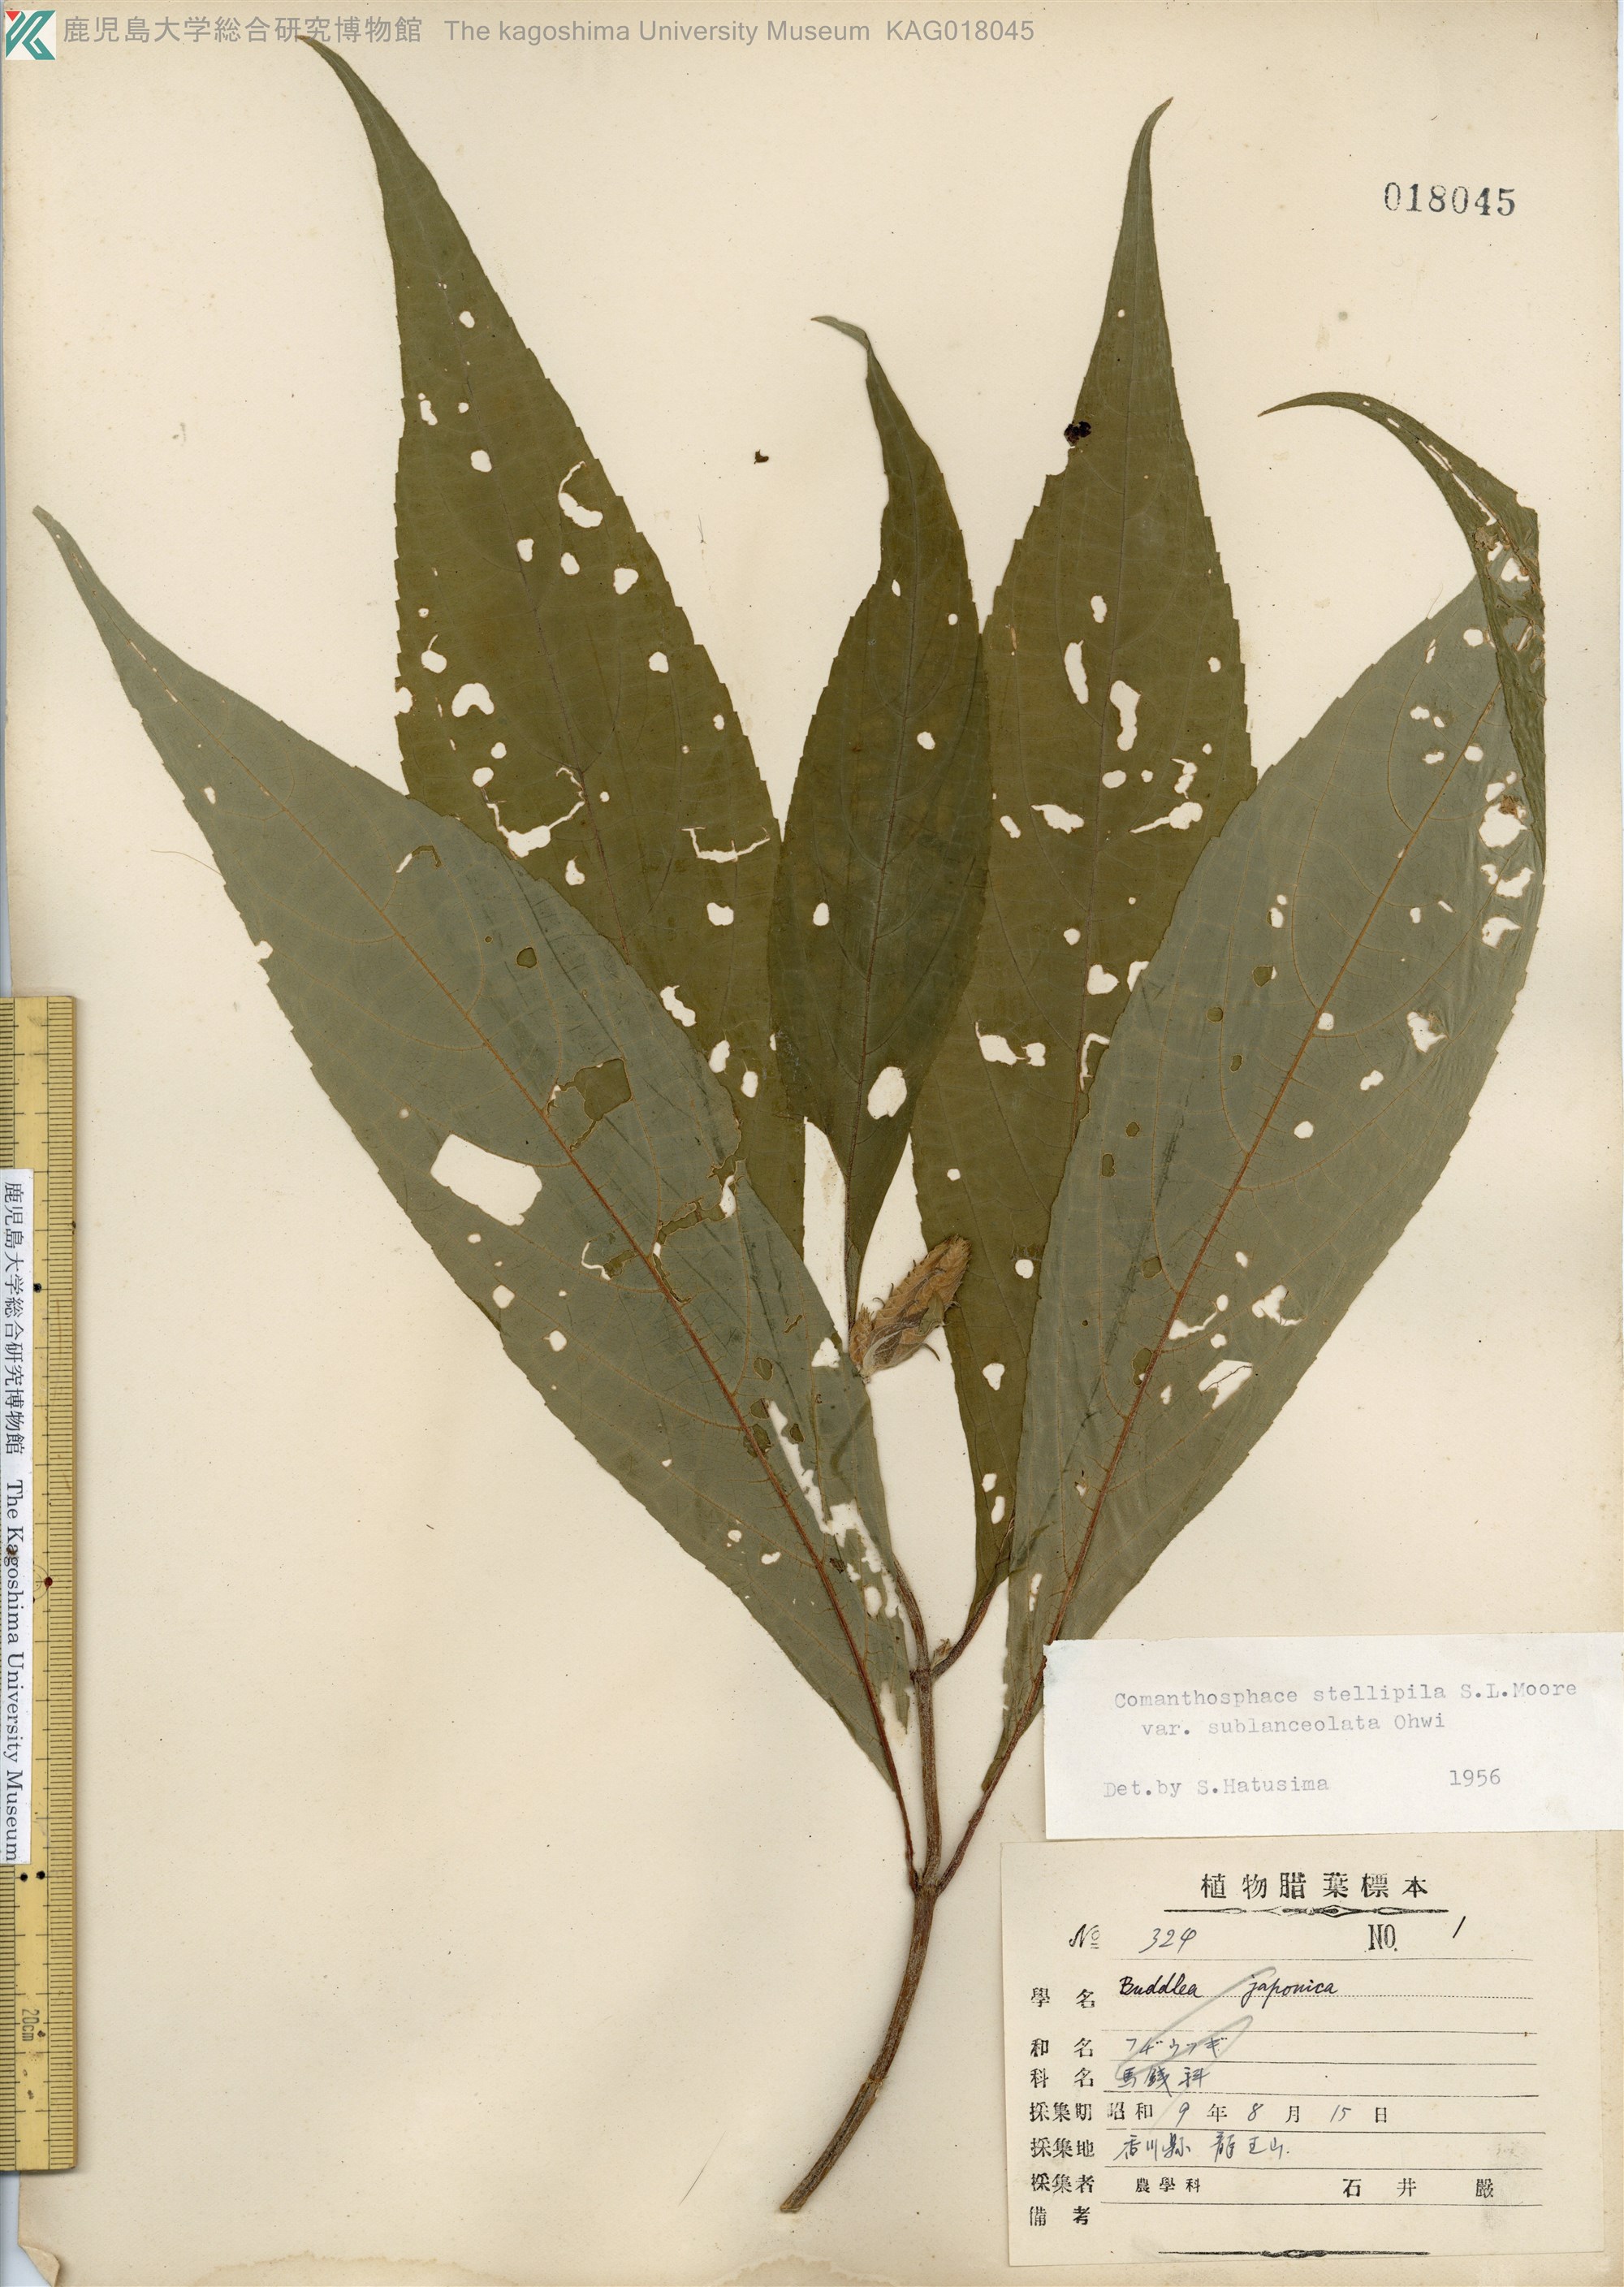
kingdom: Plantae
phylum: Tracheophyta
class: Magnoliopsida
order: Lamiales
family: Lamiaceae
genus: Comanthosphace
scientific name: Comanthosphace japonica
